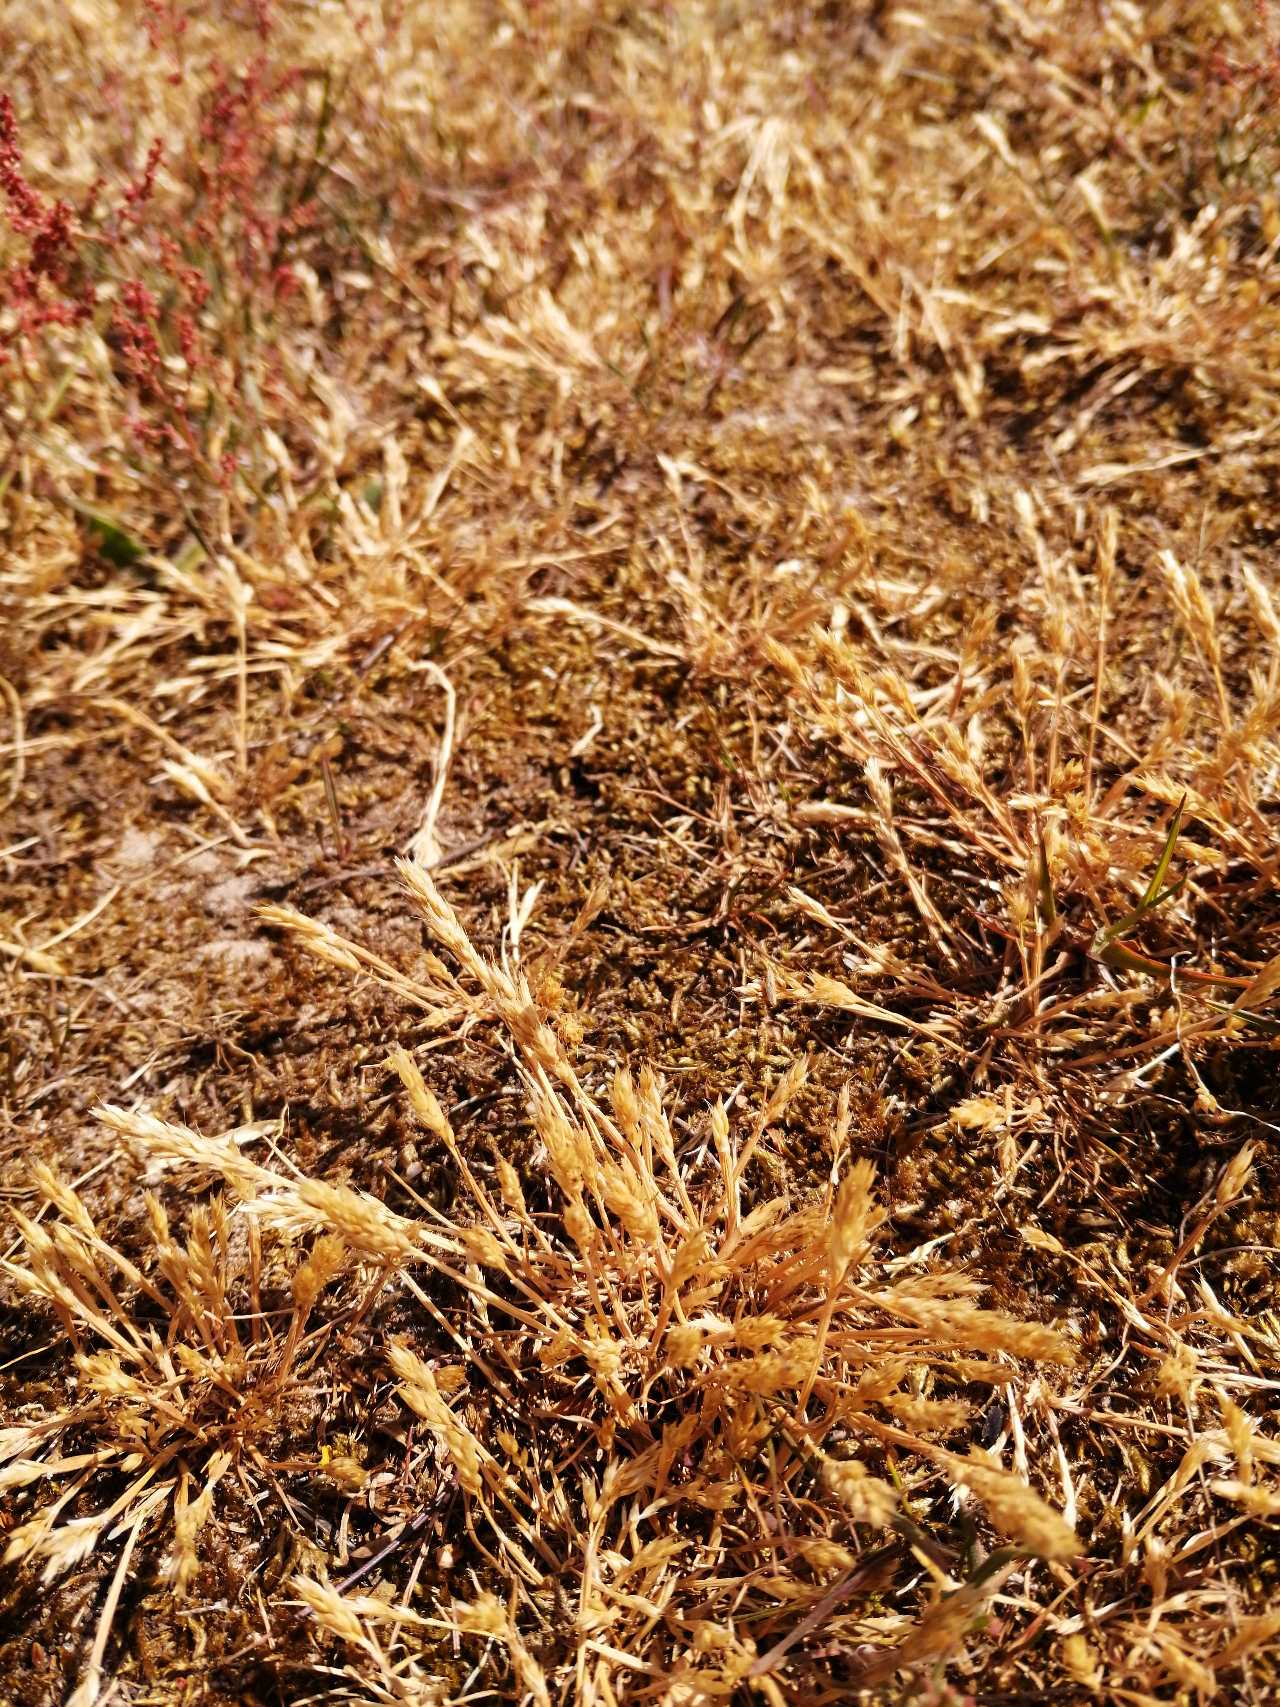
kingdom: Plantae
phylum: Tracheophyta
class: Liliopsida
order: Poales
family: Poaceae
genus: Aira
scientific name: Aira praecox
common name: Tidlig dværgbunke
